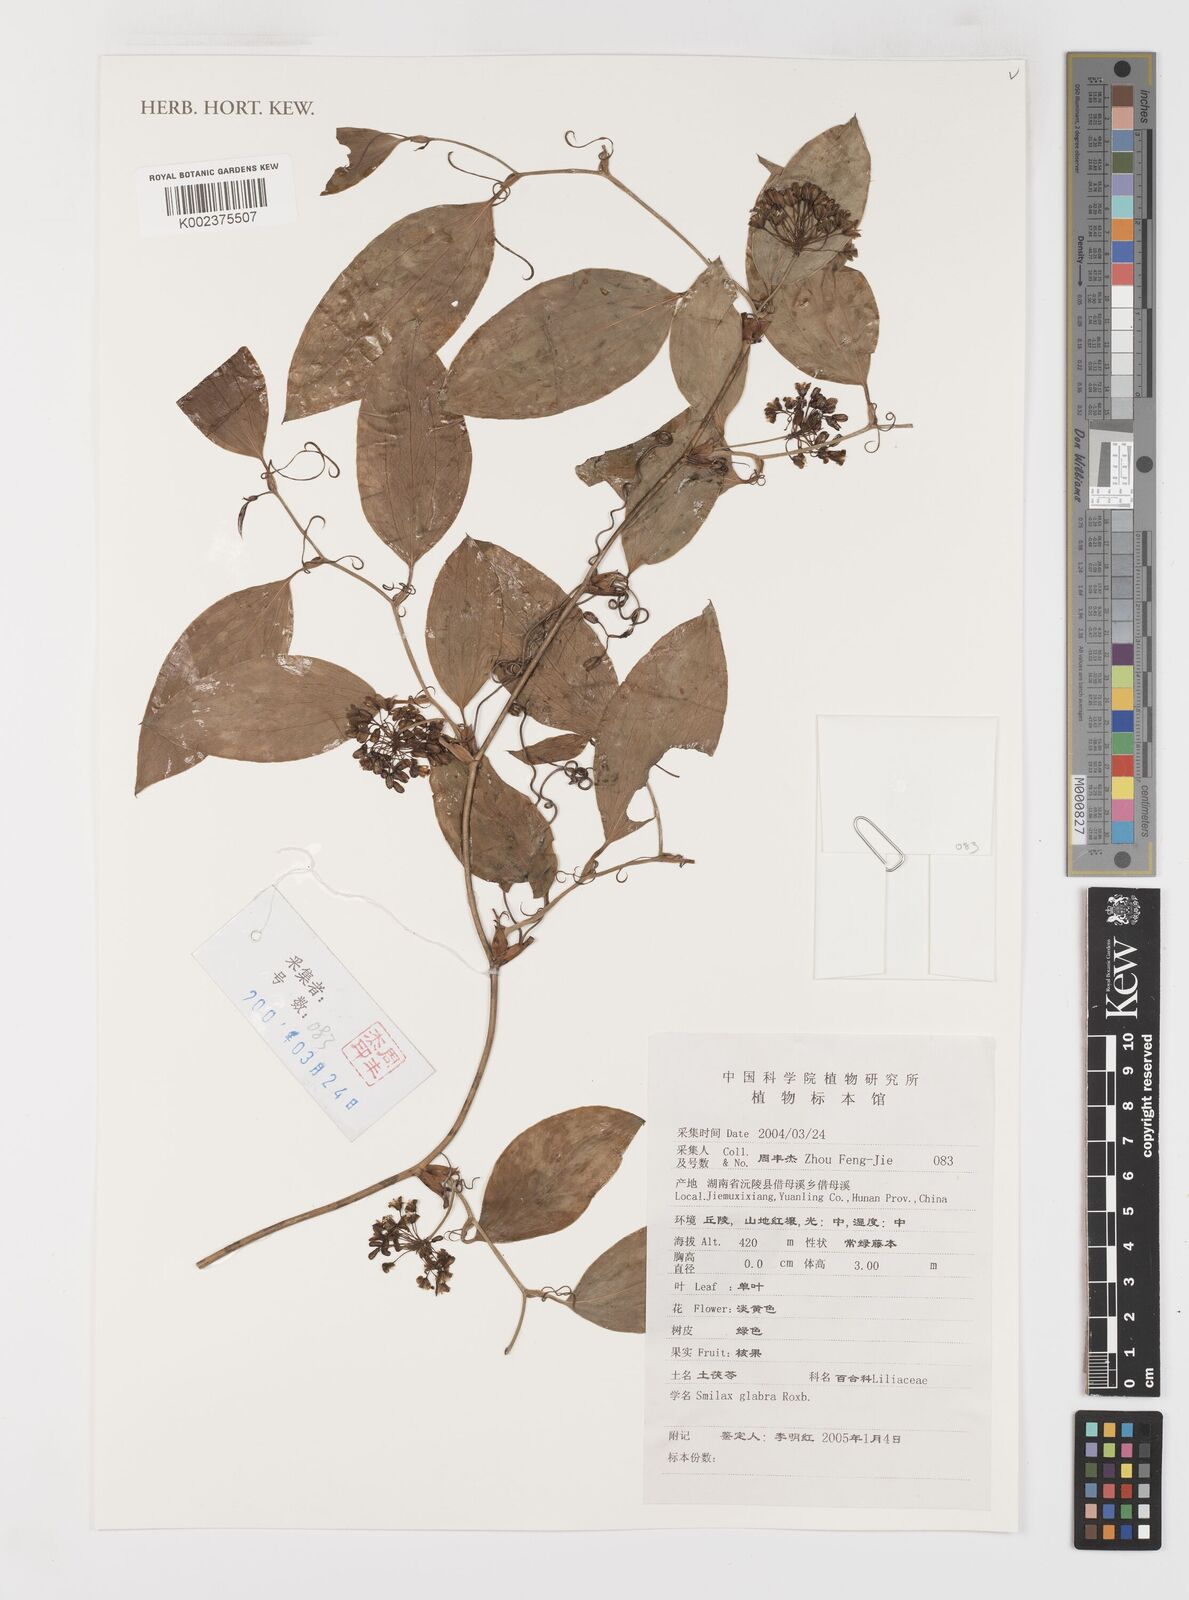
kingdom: Plantae
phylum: Tracheophyta
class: Liliopsida
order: Liliales
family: Smilacaceae
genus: Smilax
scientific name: Smilax glabra
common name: Chinese smilax
